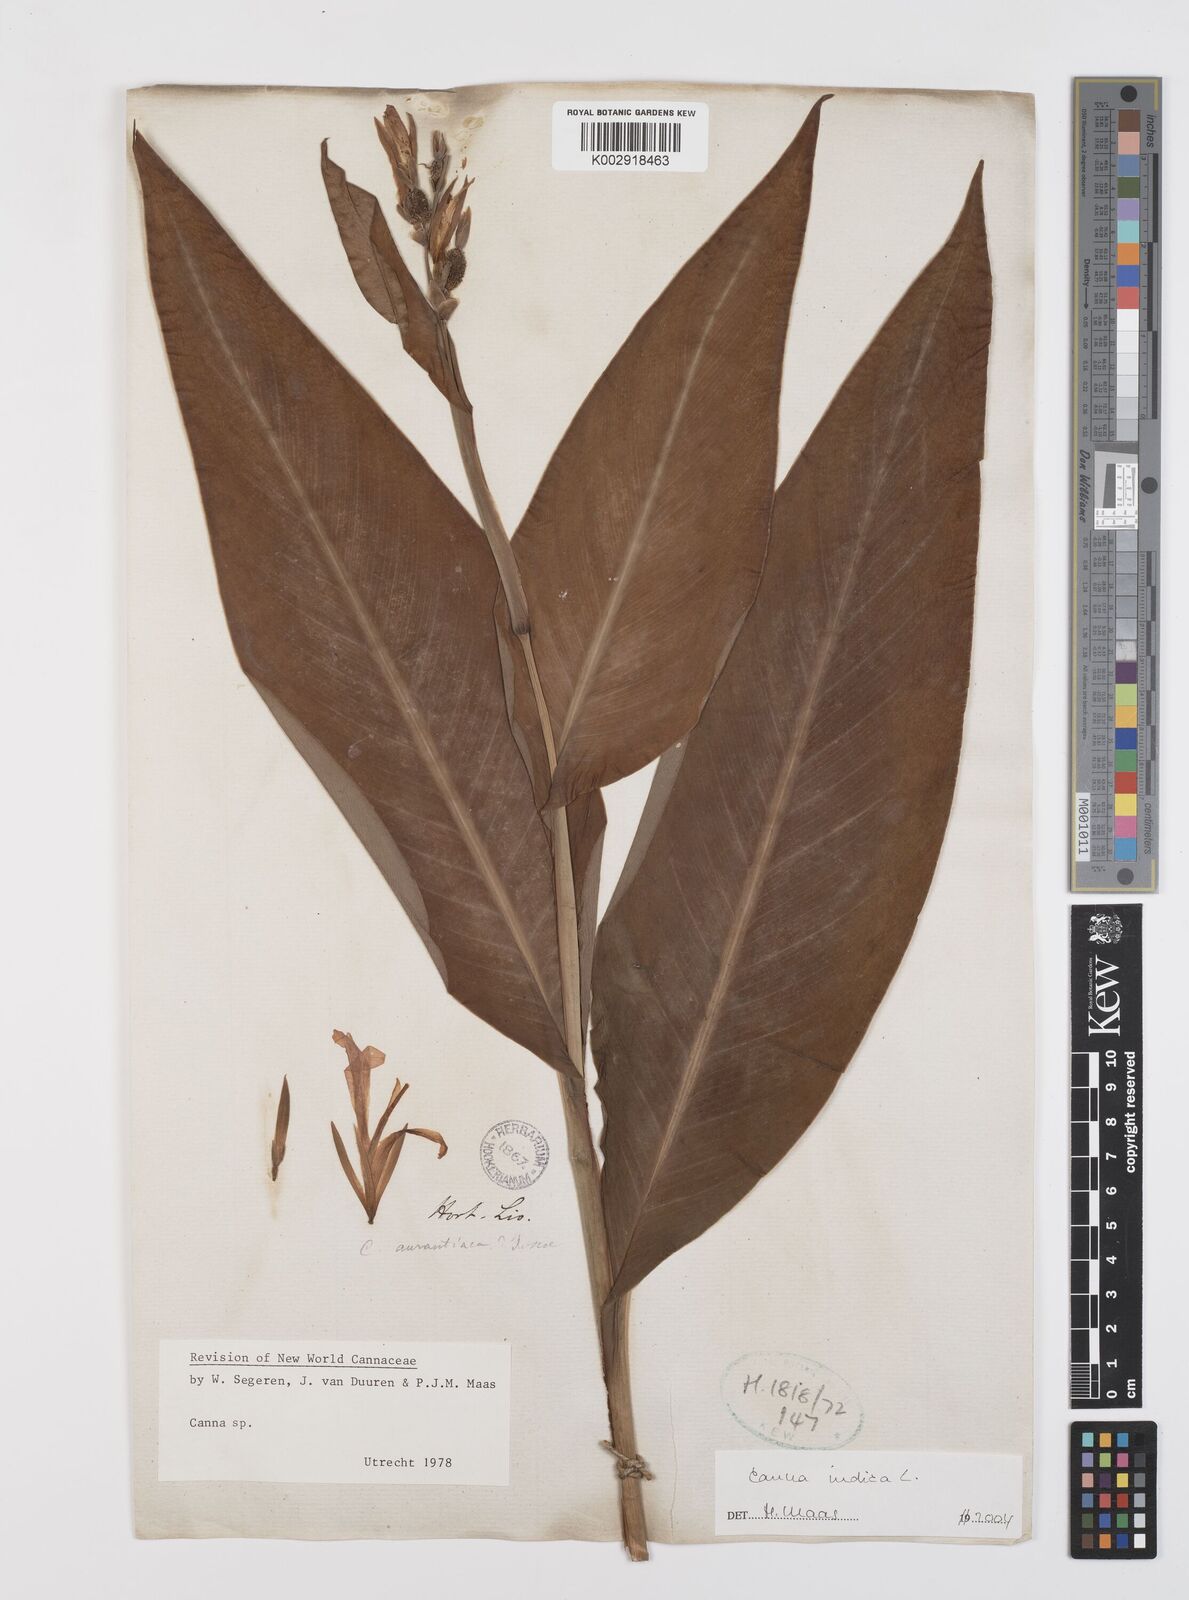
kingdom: Plantae
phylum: Tracheophyta
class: Liliopsida
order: Zingiberales
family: Cannaceae
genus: Canna
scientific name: Canna indica
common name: Indian shot
